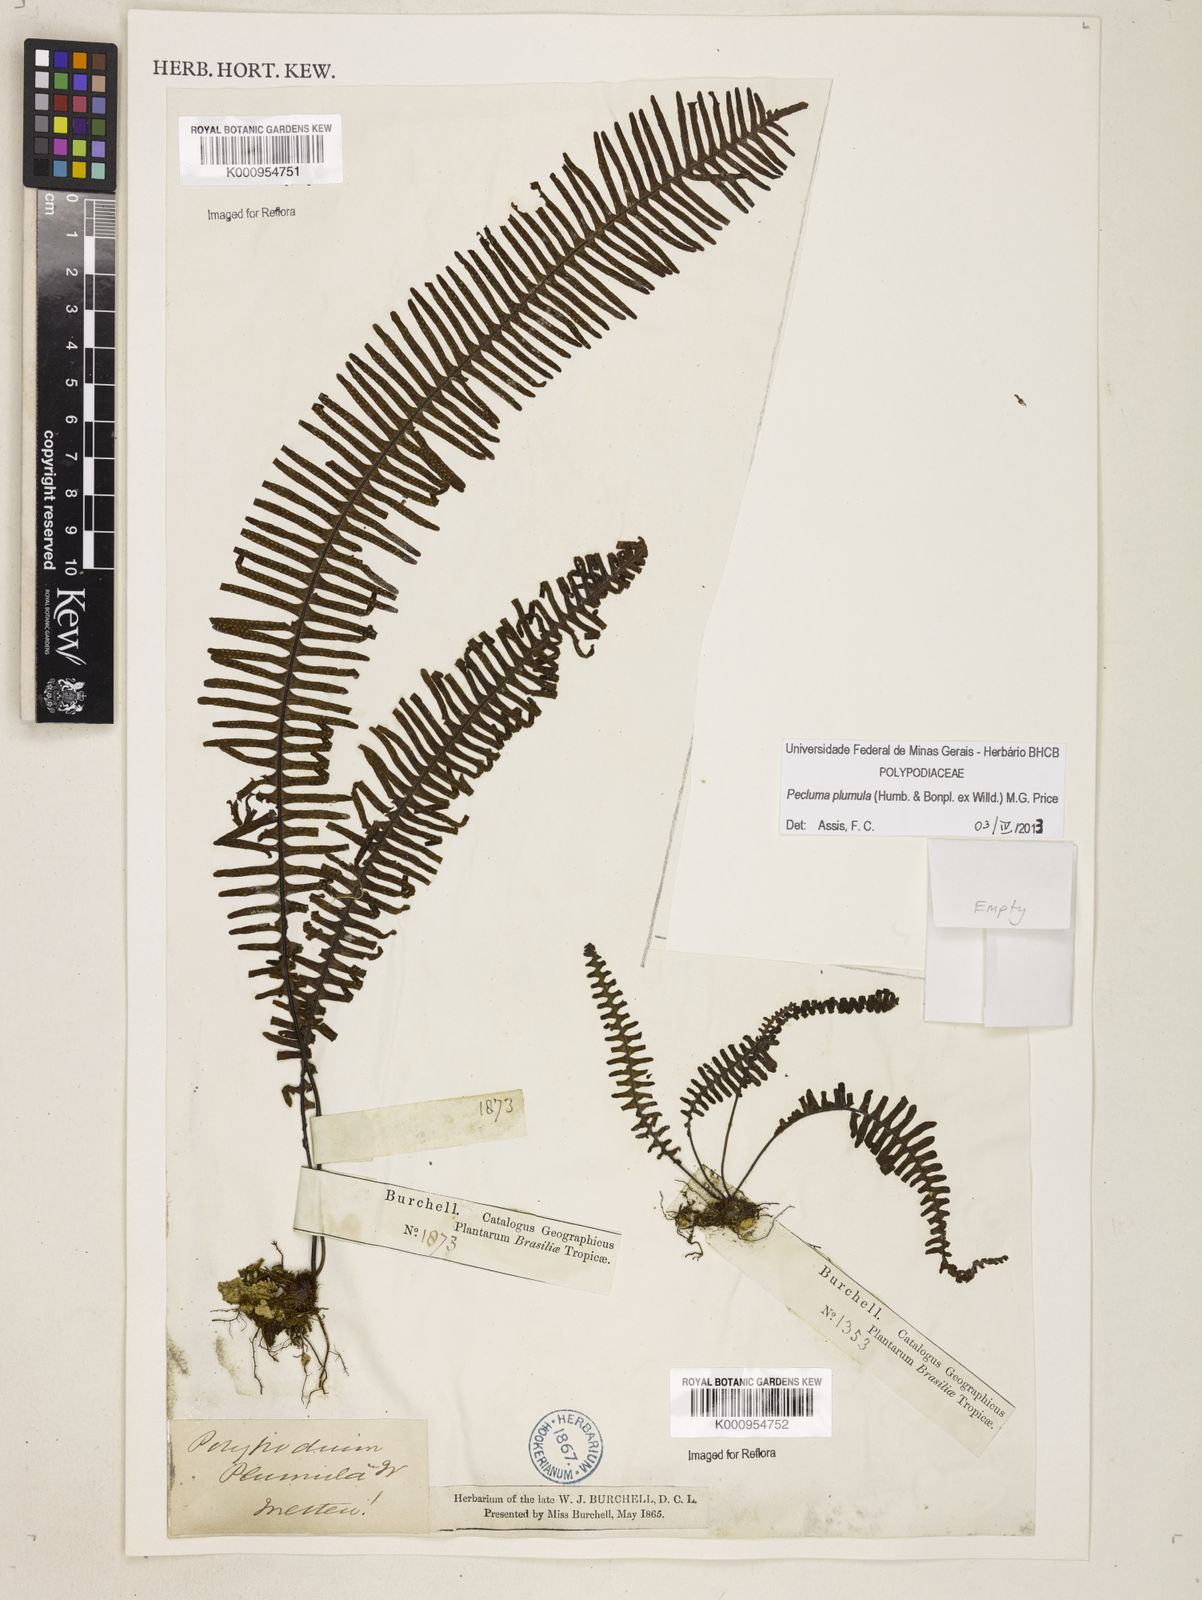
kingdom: Plantae
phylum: Tracheophyta
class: Polypodiopsida
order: Polypodiales
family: Polypodiaceae
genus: Pecluma
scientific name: Pecluma plumula
